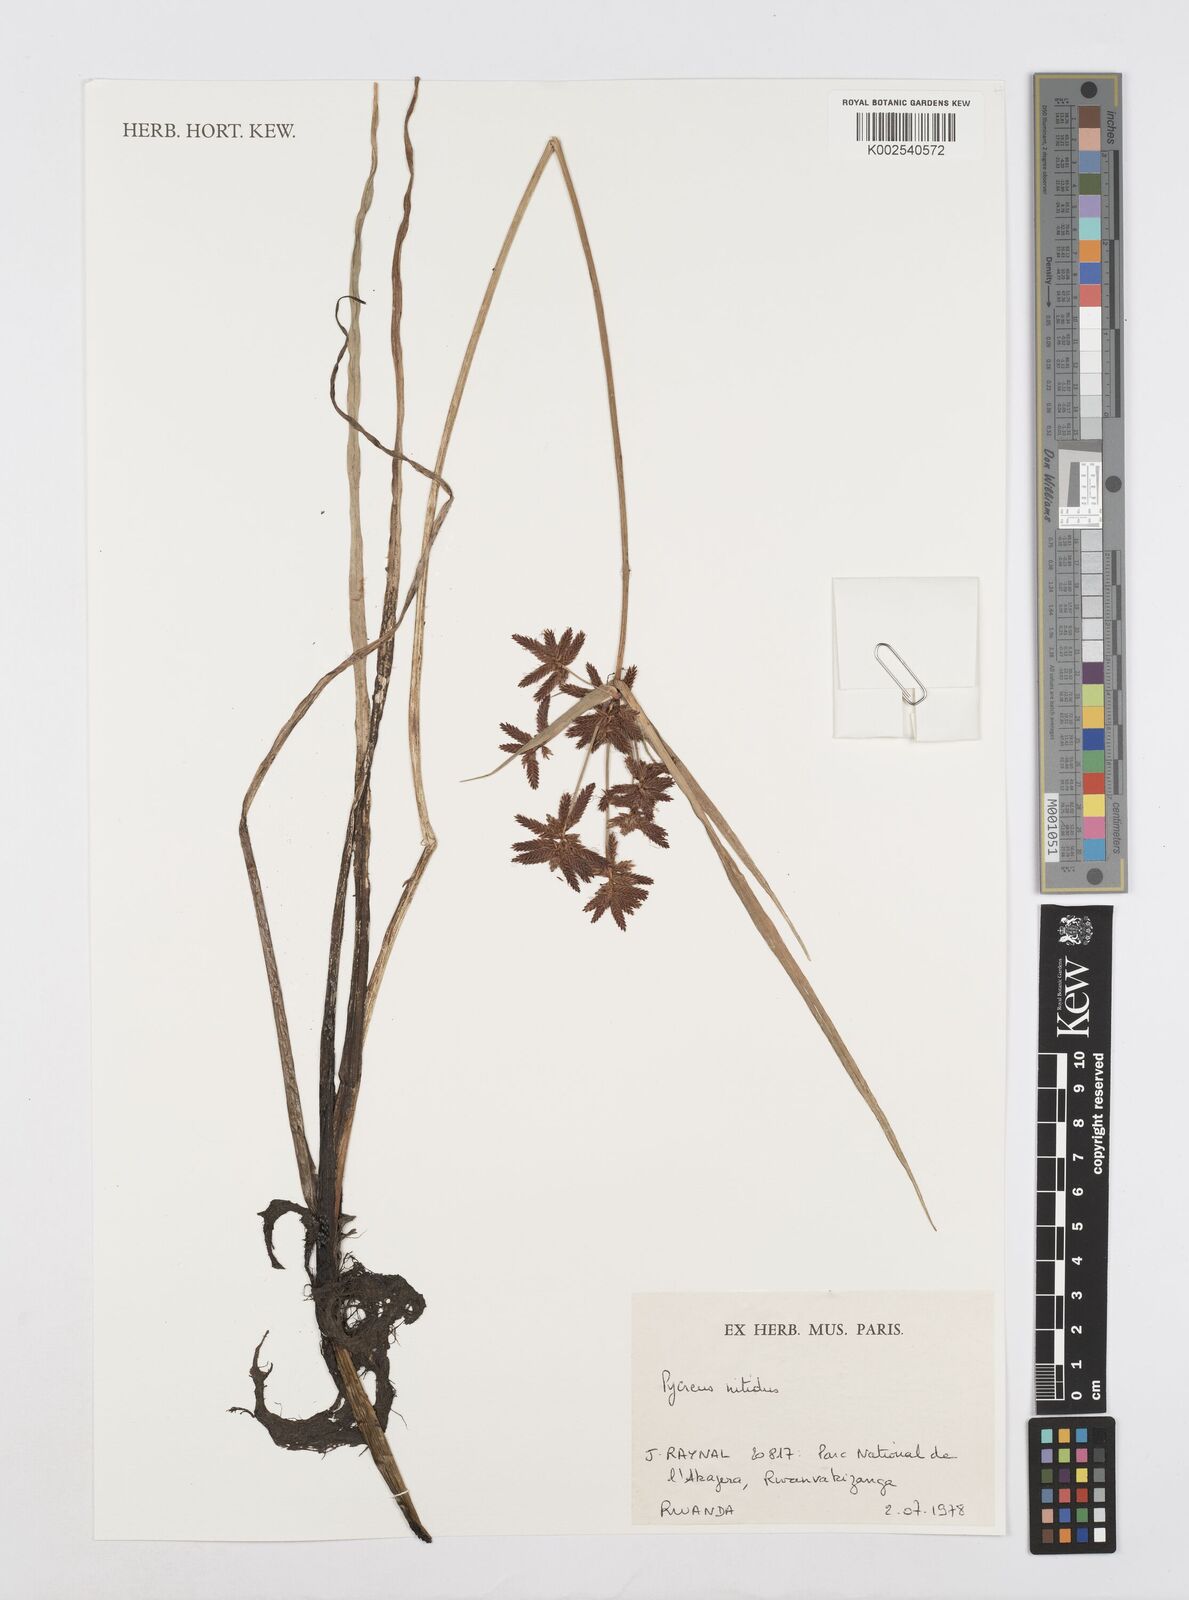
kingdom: Plantae
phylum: Tracheophyta
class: Liliopsida
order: Poales
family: Cyperaceae
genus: Cyperus
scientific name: Cyperus nitidus
